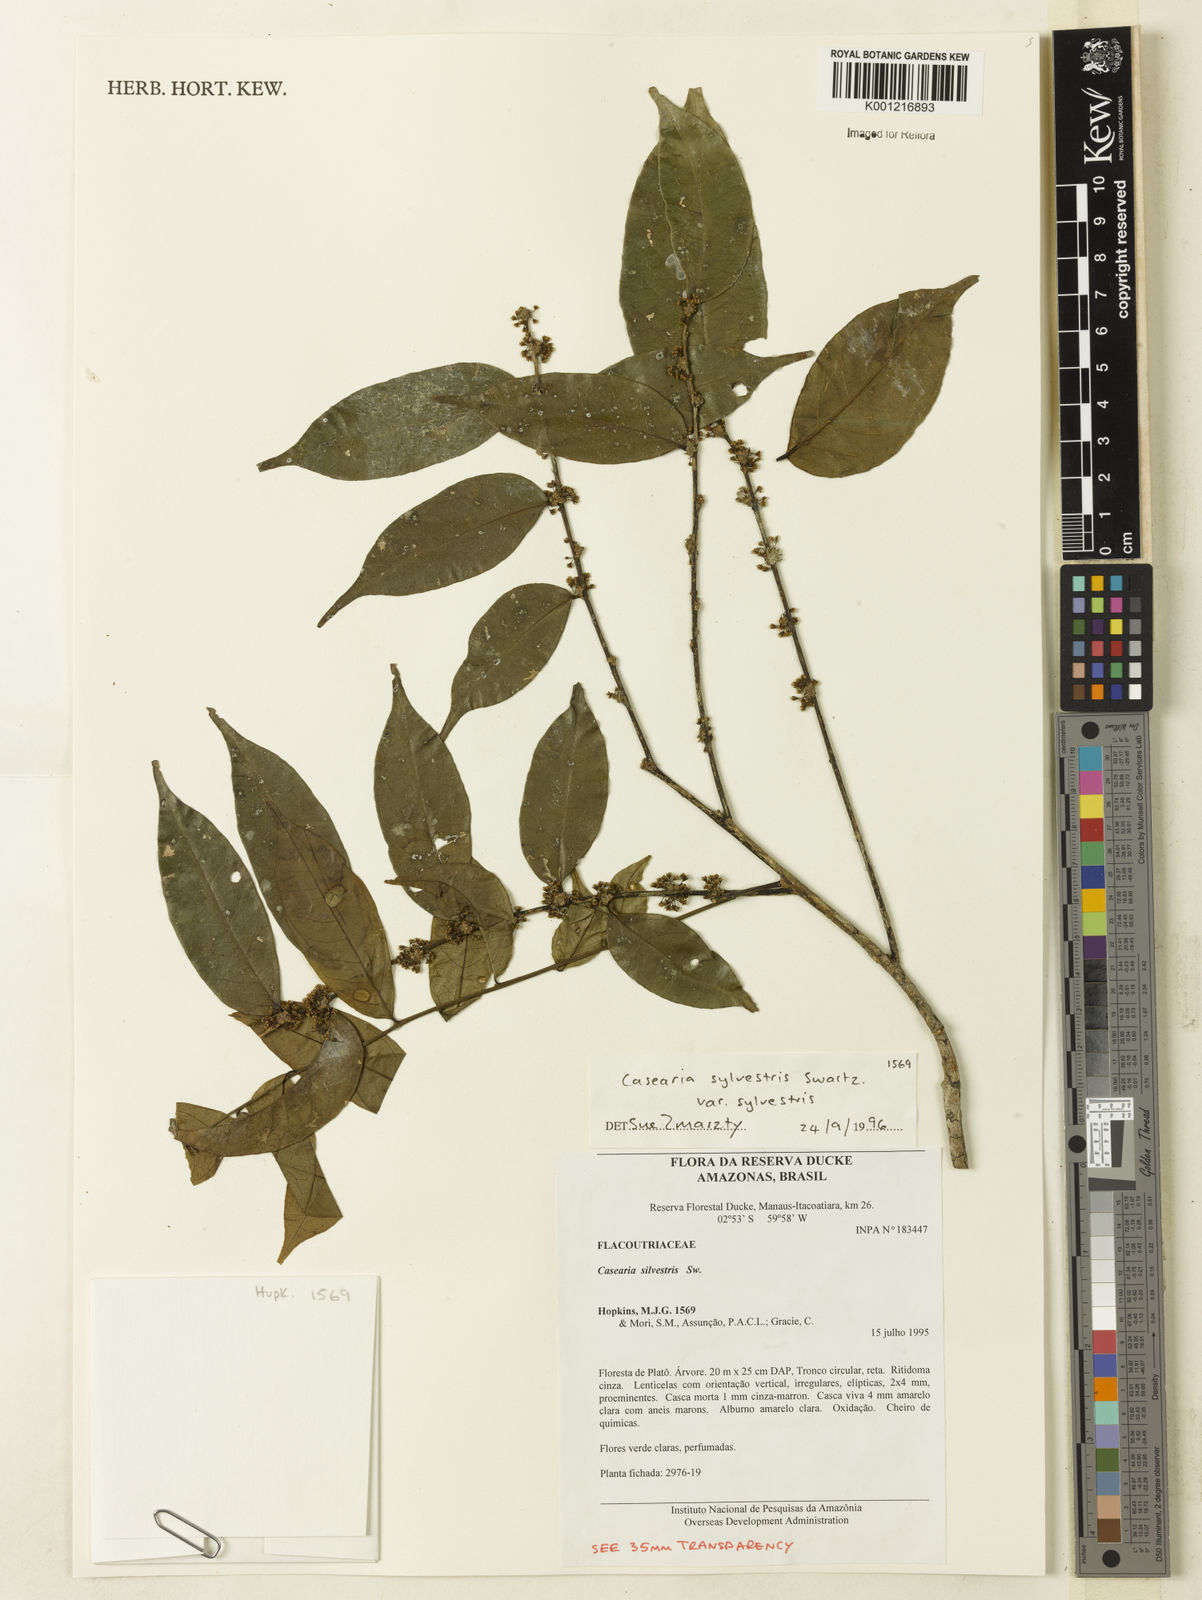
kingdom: Plantae
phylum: Tracheophyta
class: Magnoliopsida
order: Malpighiales
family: Salicaceae
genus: Casearia
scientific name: Casearia sylvestris
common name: Wild sage
